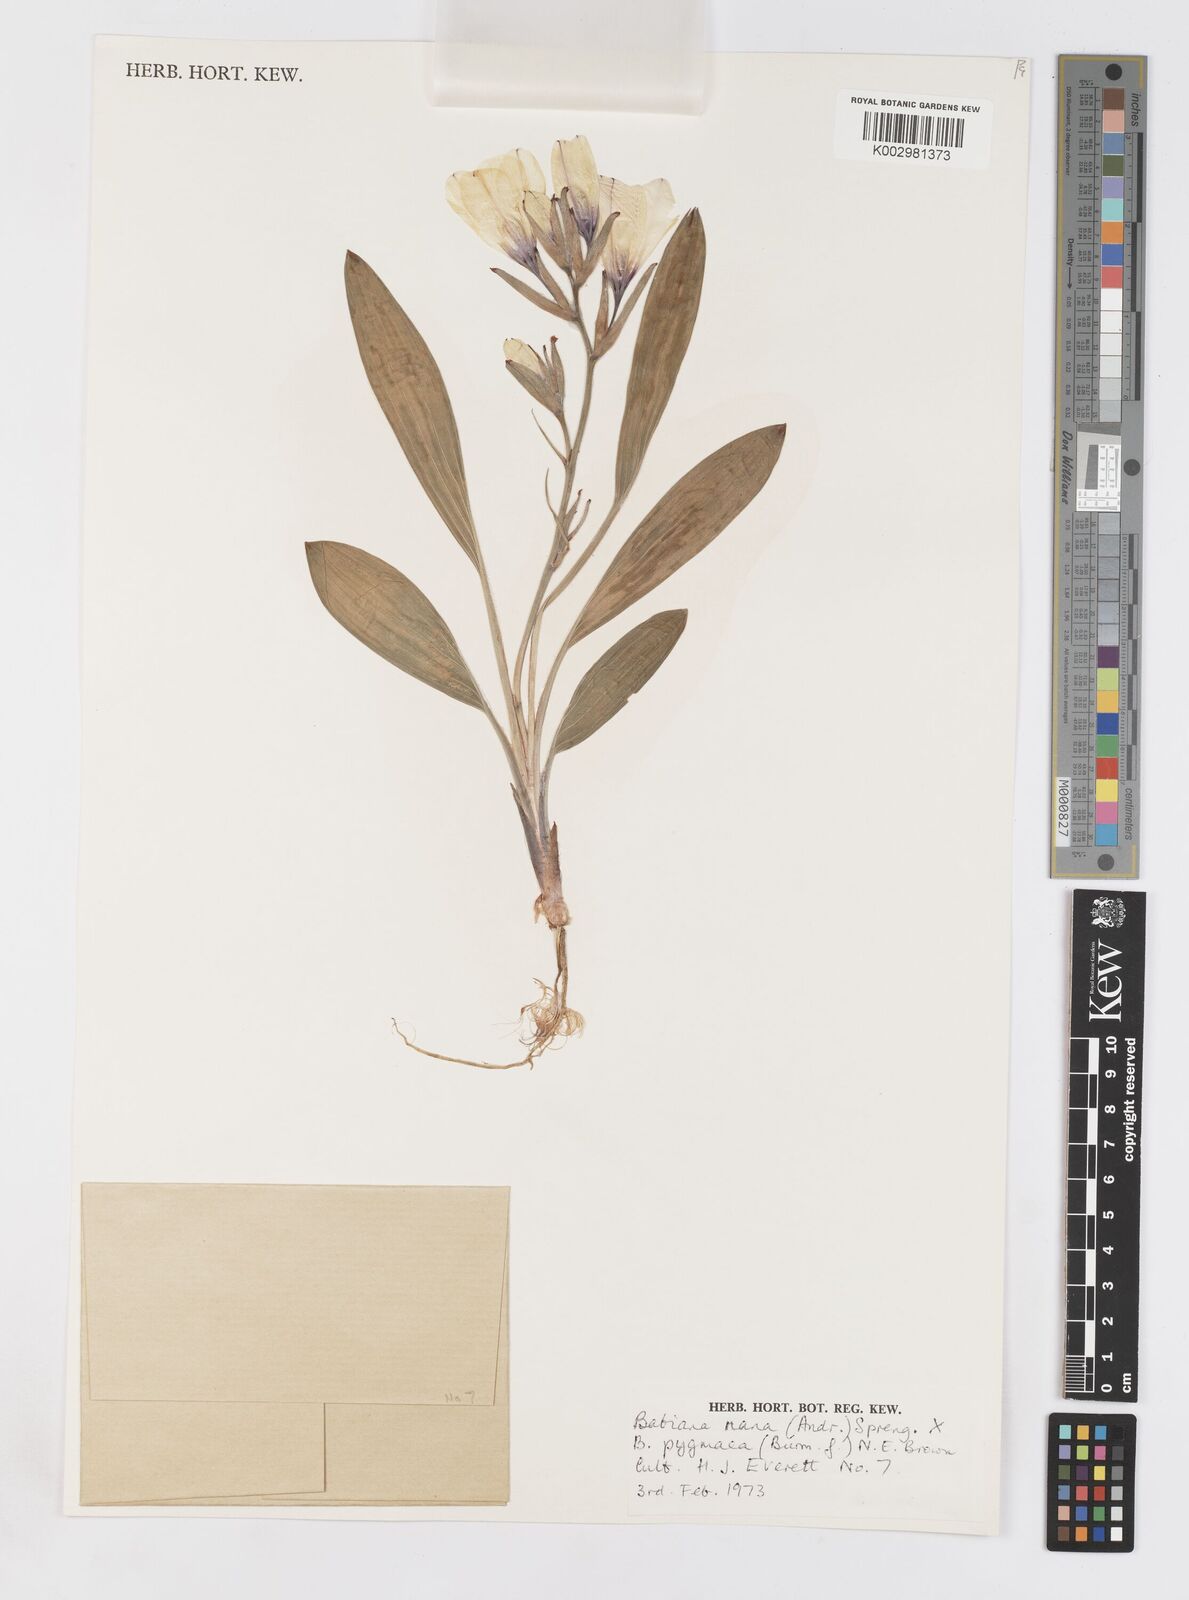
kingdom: Plantae
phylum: Tracheophyta
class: Liliopsida
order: Asparagales
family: Iridaceae
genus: Babiana
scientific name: Babiana nana
